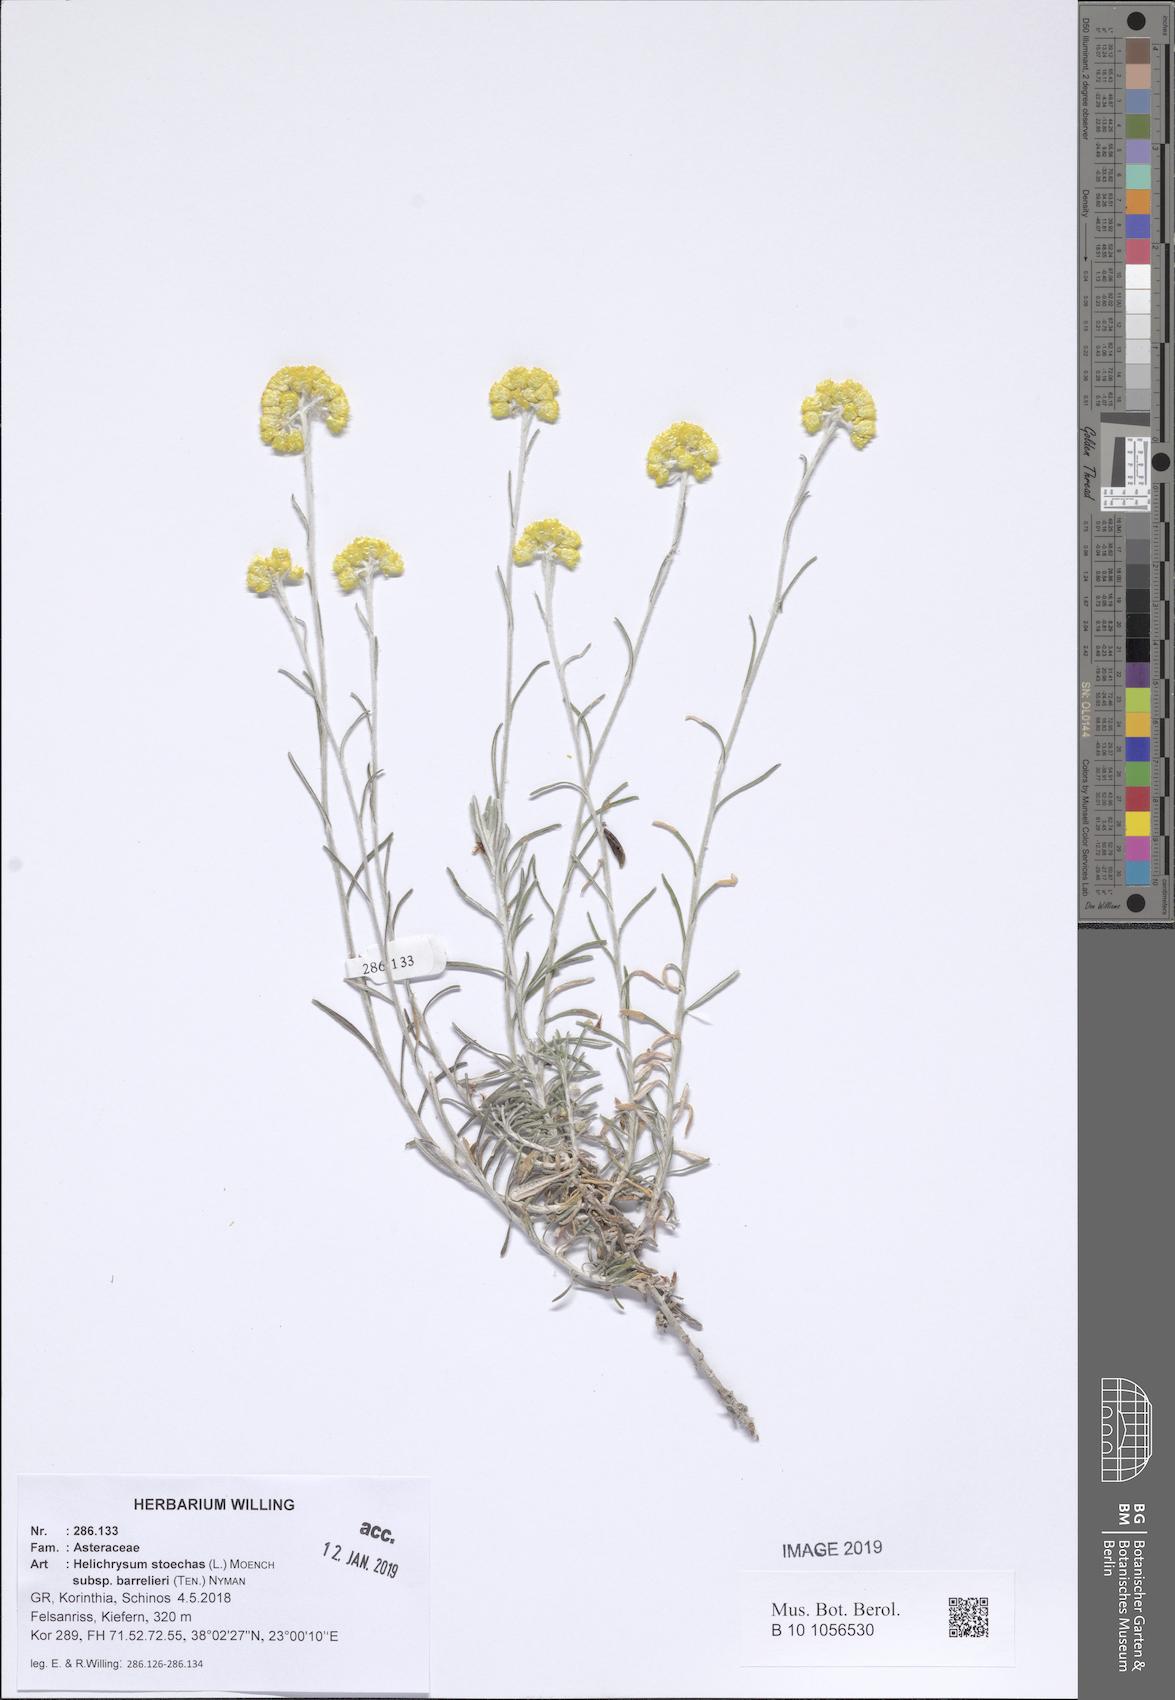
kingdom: Plantae
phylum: Tracheophyta
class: Magnoliopsida
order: Asterales
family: Asteraceae
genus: Helichrysum
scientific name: Helichrysum stoechas
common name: Goldilocks
